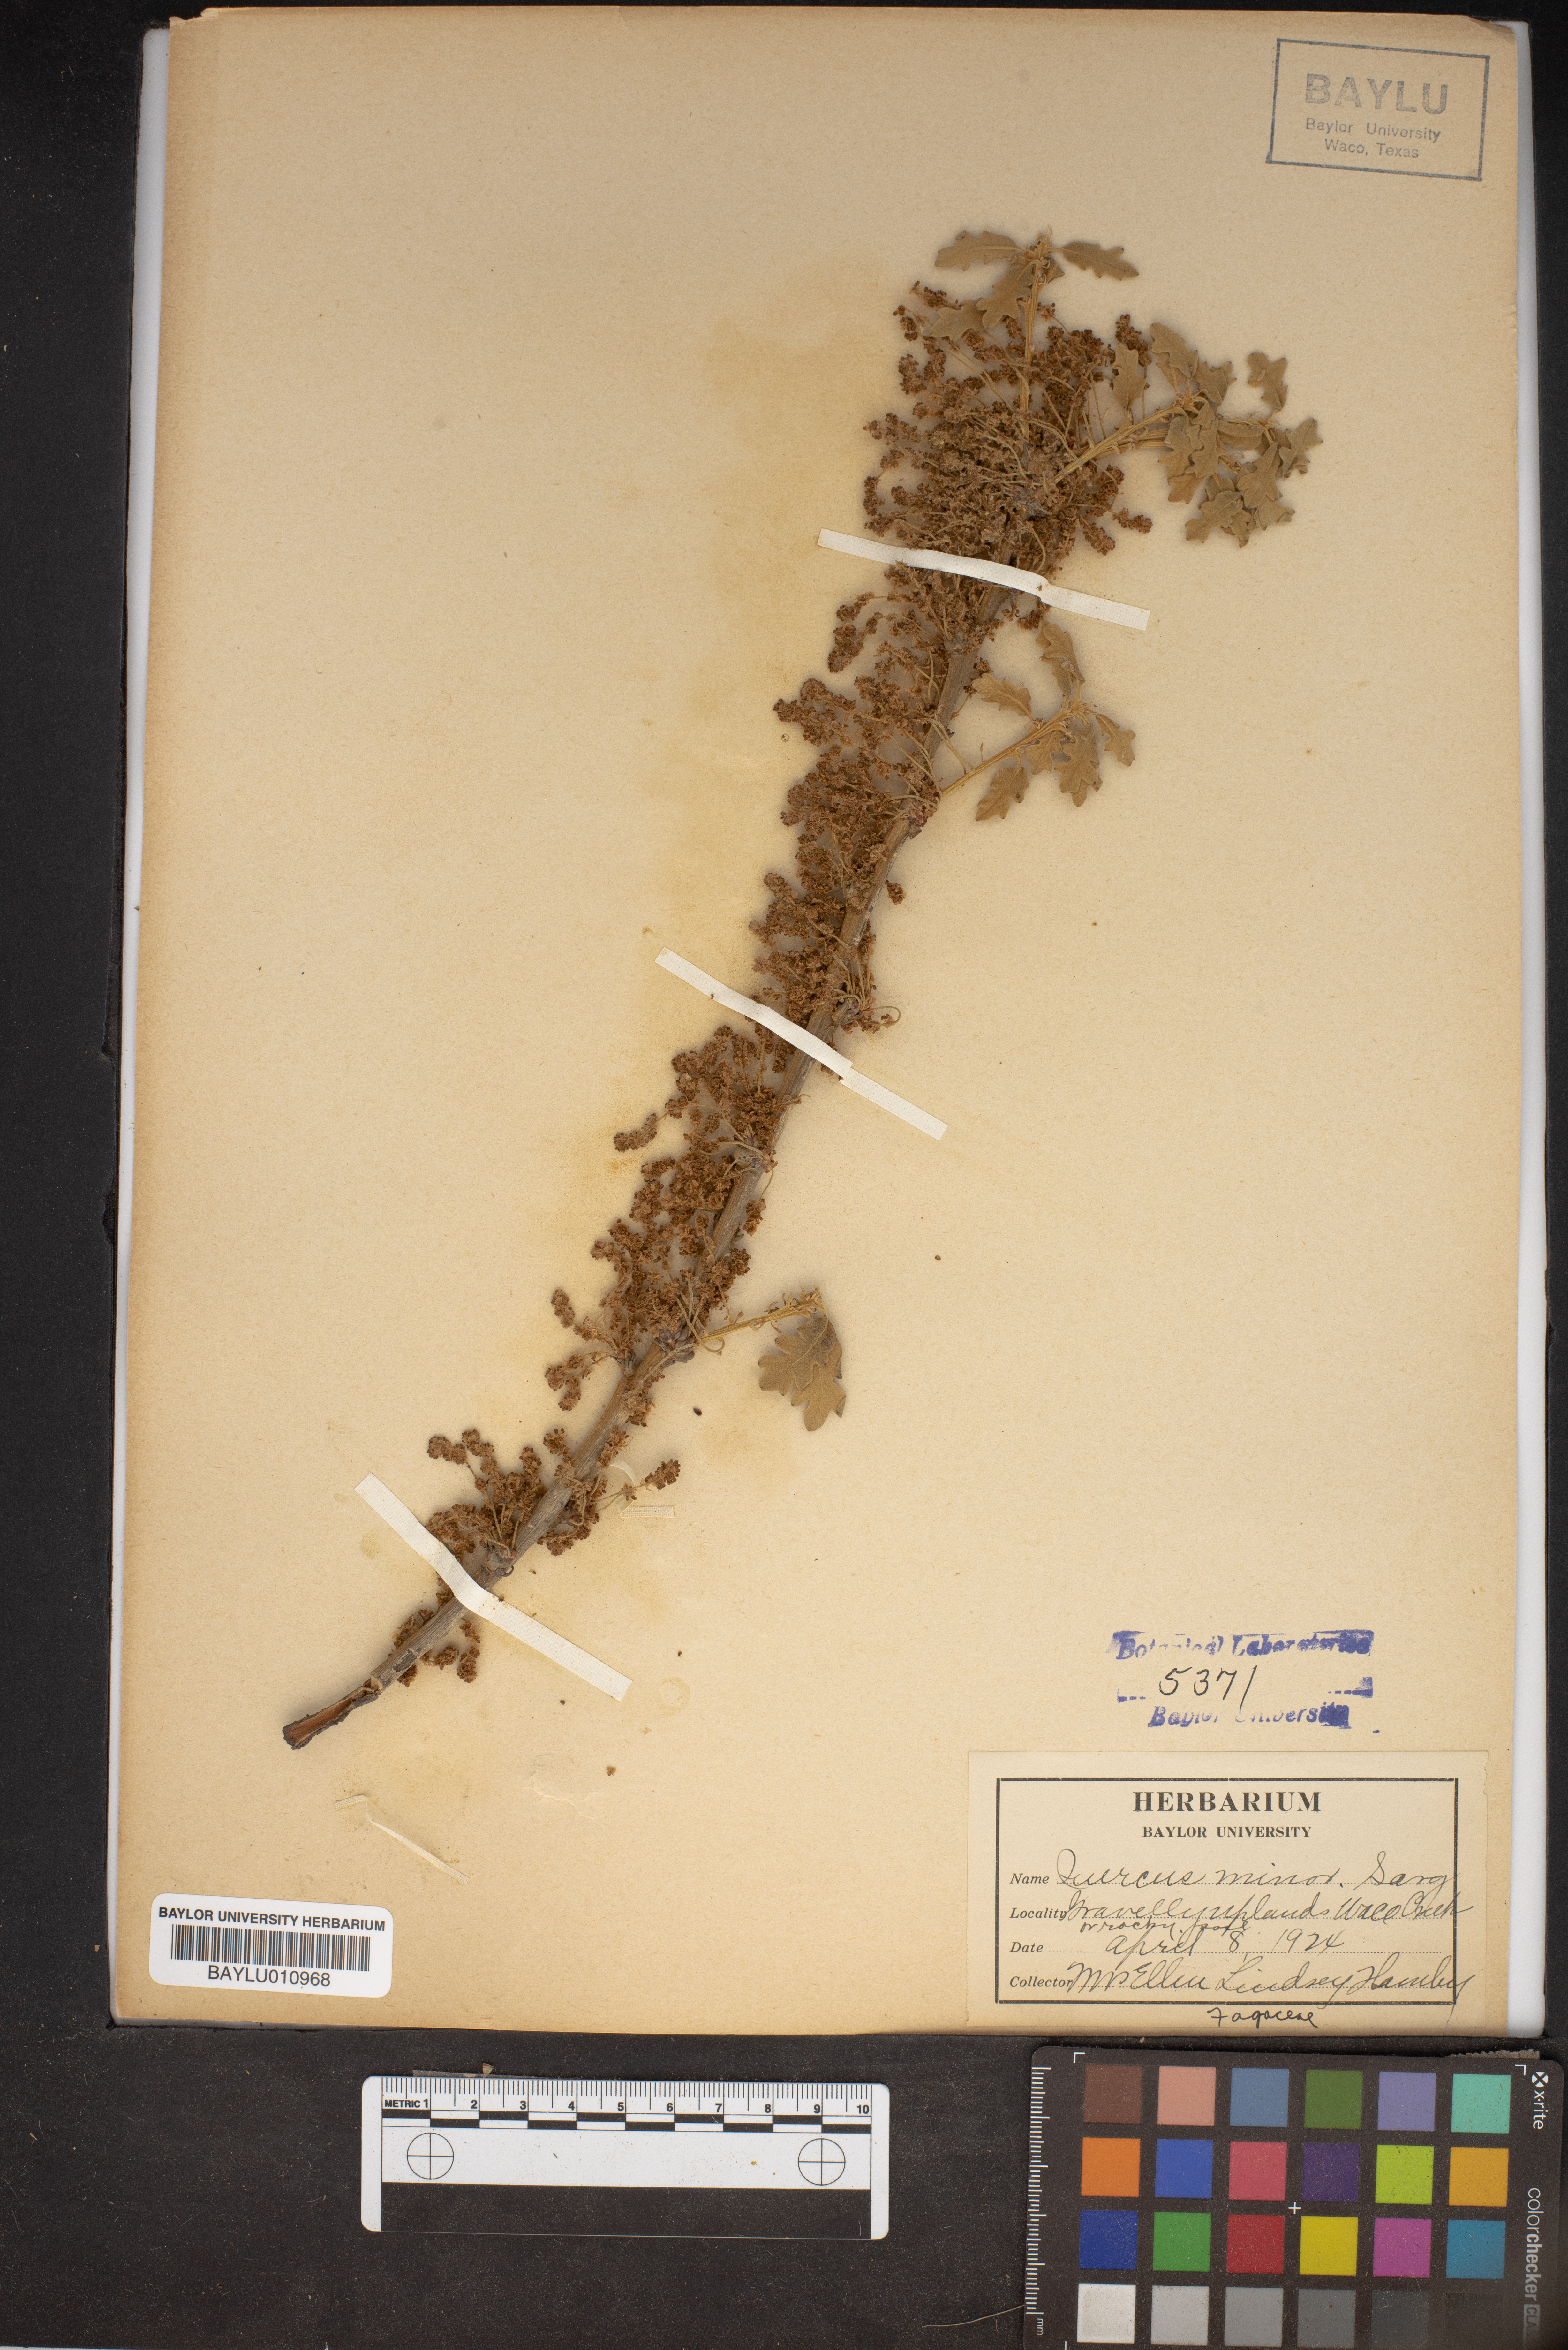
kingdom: Plantae
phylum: Tracheophyta
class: Magnoliopsida
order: Fagales
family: Fagaceae
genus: Quercus
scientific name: Quercus stellata
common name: Post oak
